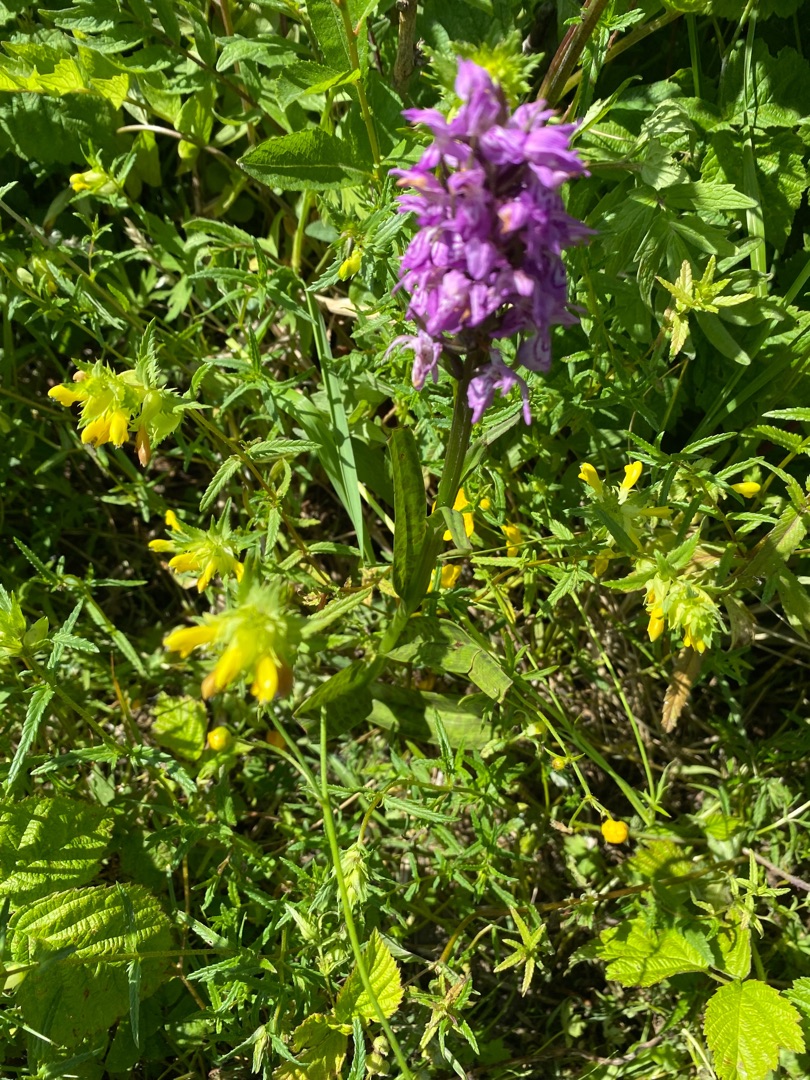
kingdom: Plantae
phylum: Tracheophyta
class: Liliopsida
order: Asparagales
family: Orchidaceae
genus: Dactylorhiza
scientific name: Dactylorhiza majalis
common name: Maj-gøgeurt
